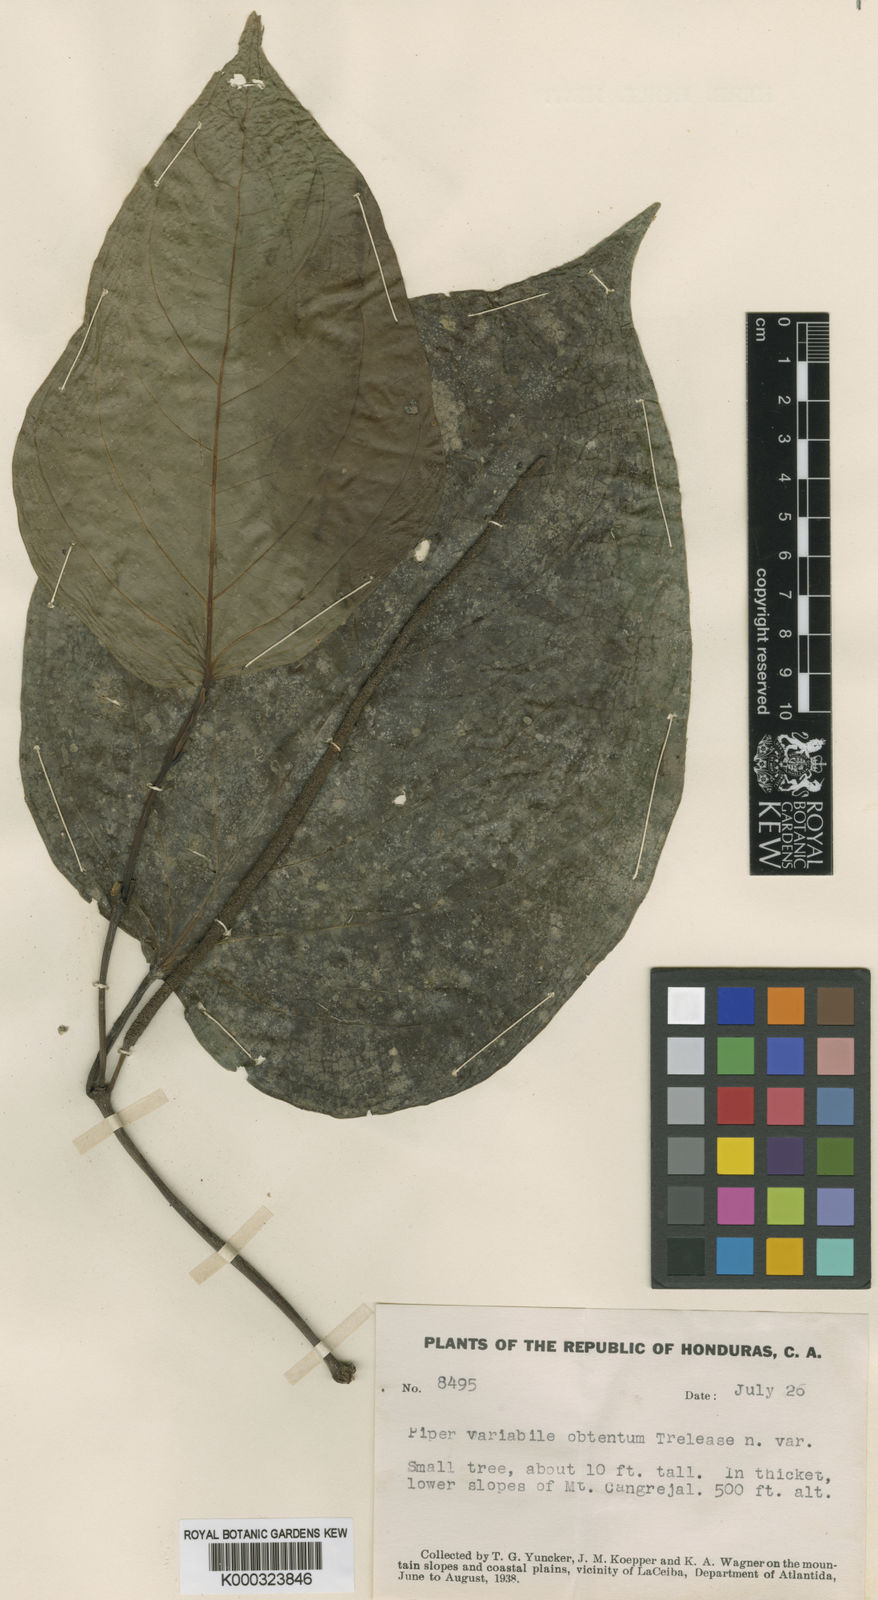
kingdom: Plantae
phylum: Tracheophyta
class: Magnoliopsida
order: Piperales
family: Piperaceae
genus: Piper
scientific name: Piper schiedeanum
